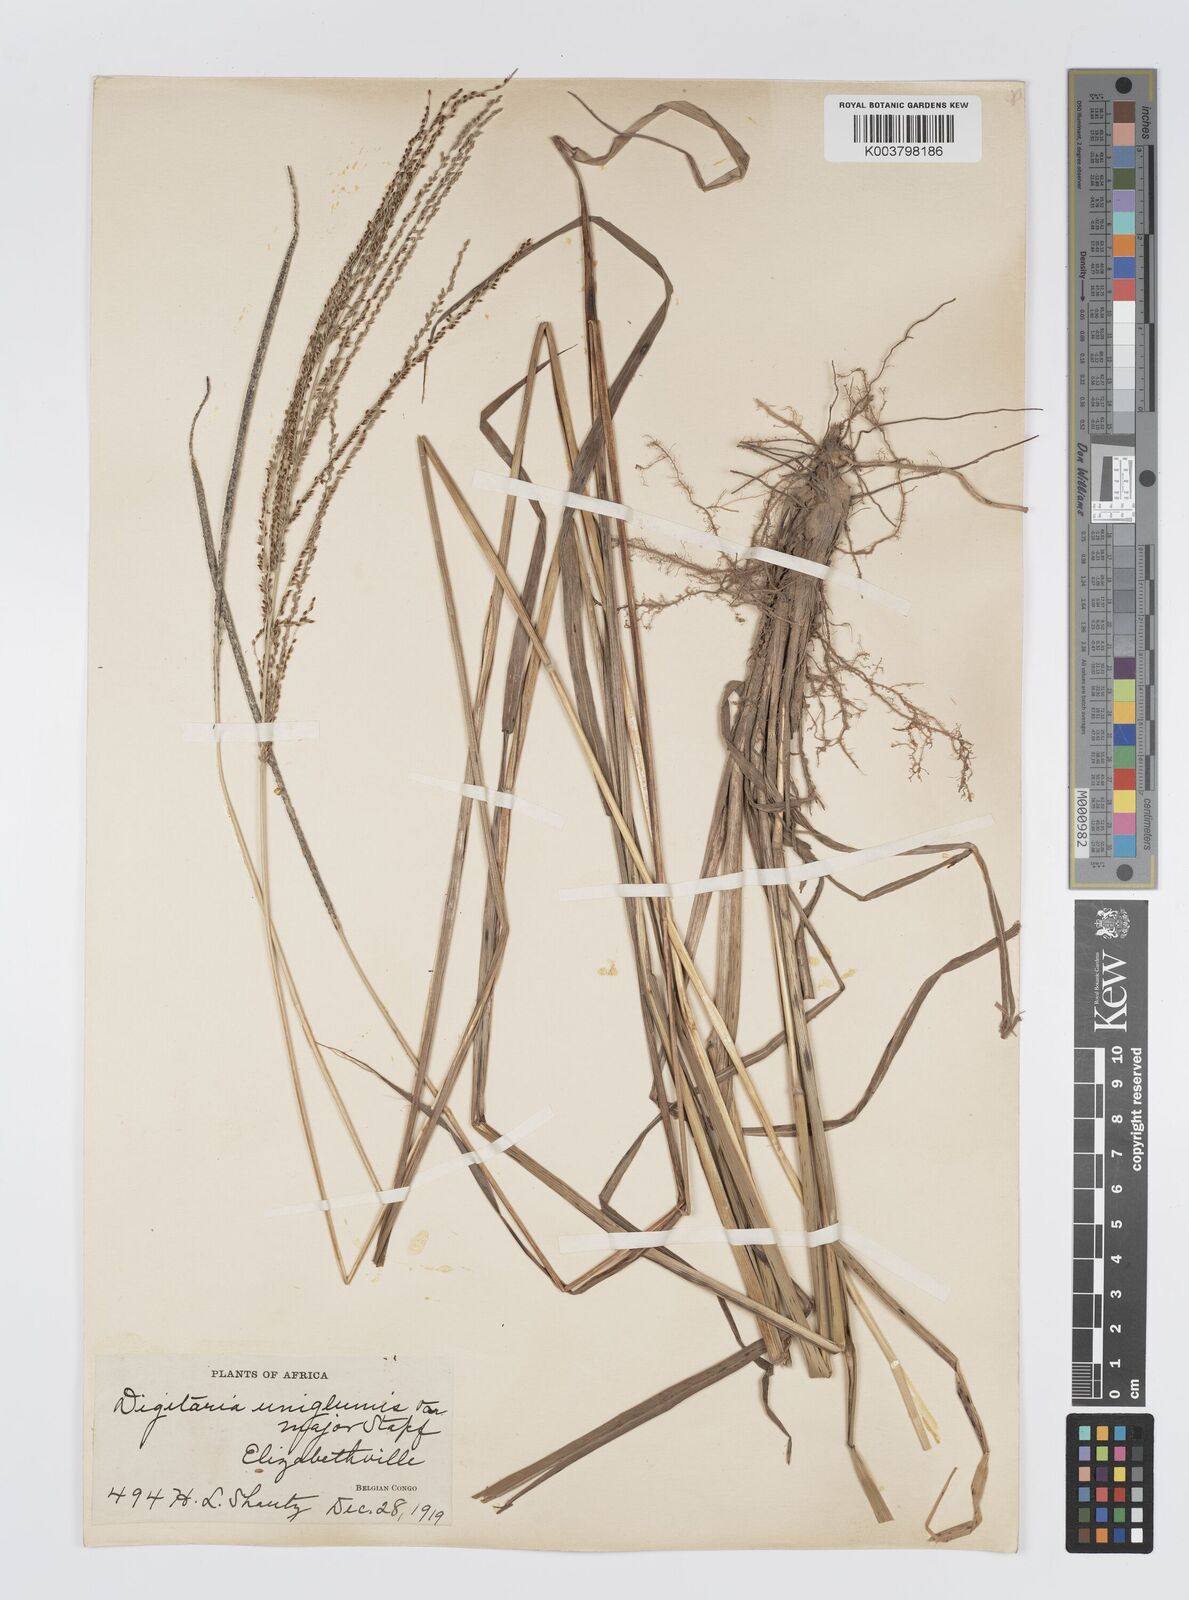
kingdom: Plantae
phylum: Tracheophyta
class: Liliopsida
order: Poales
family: Poaceae
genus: Digitaria
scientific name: Digitaria diagonalis
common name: Brown-seed finger grass
